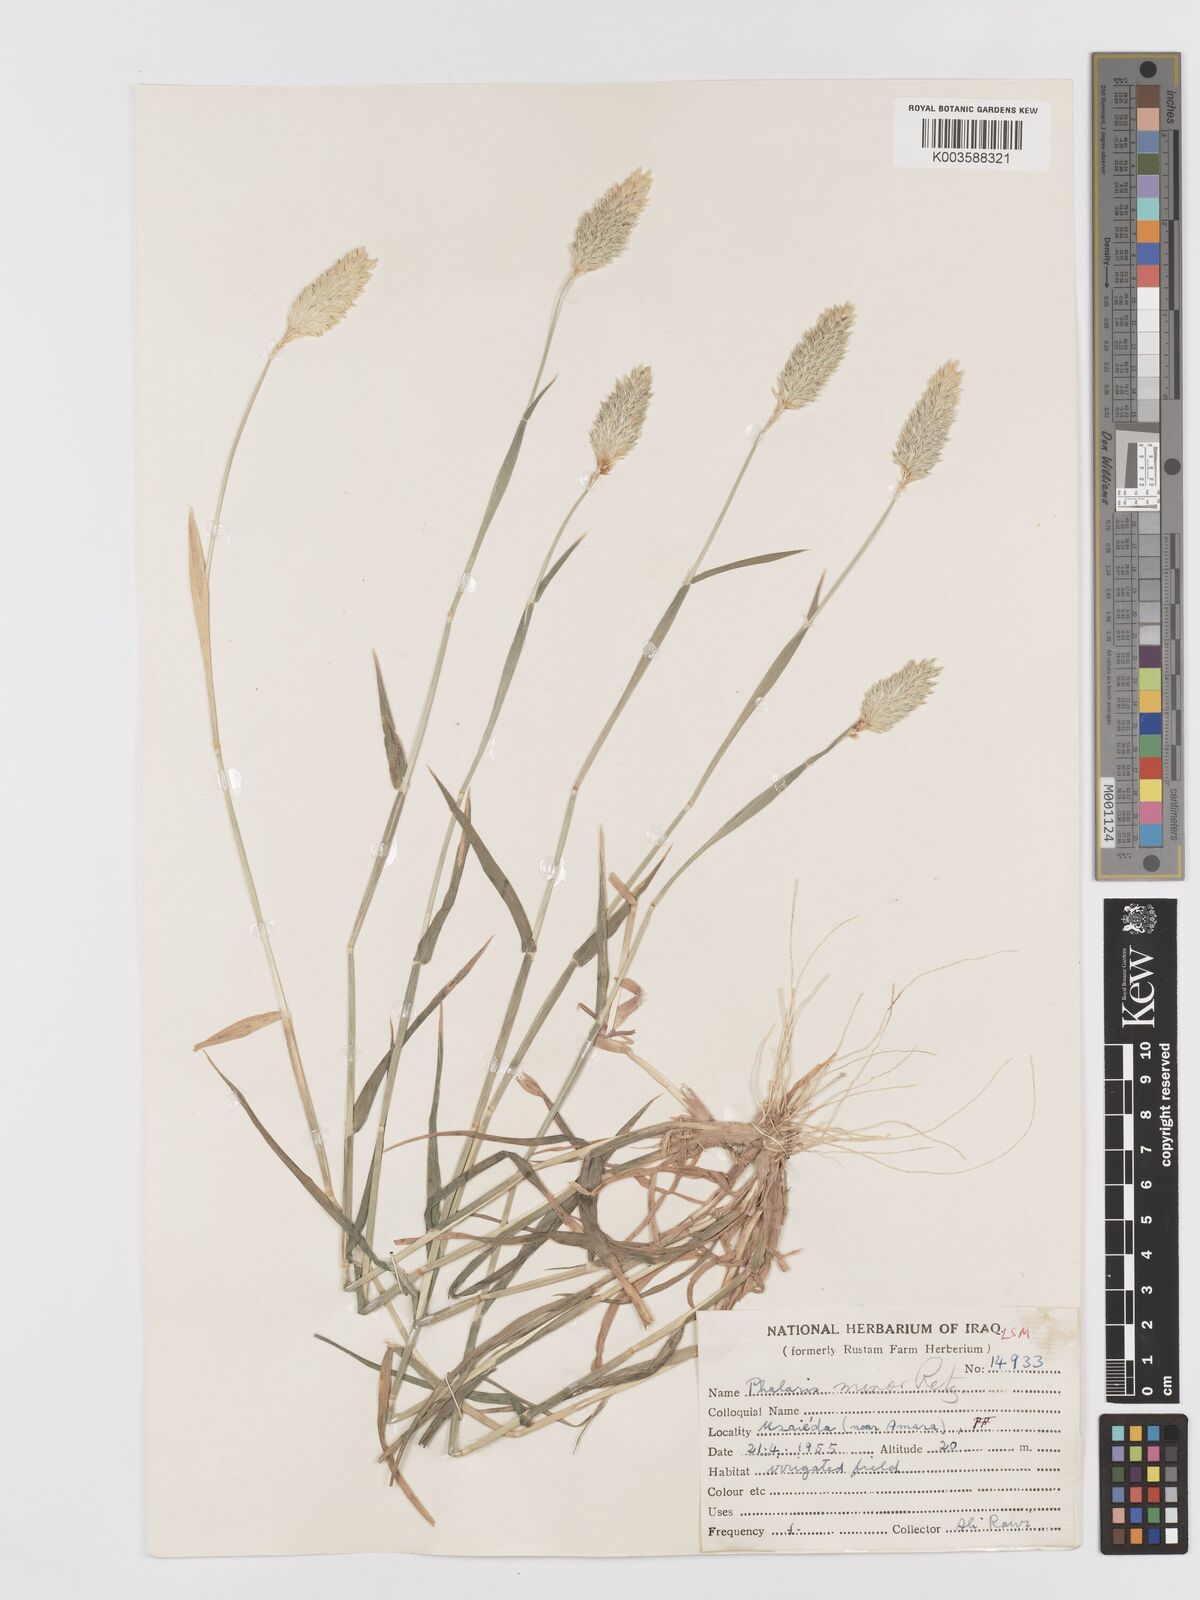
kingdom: Plantae
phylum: Tracheophyta
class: Liliopsida
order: Poales
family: Poaceae
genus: Phalaris
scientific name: Phalaris minor
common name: Littleseed canarygrass
